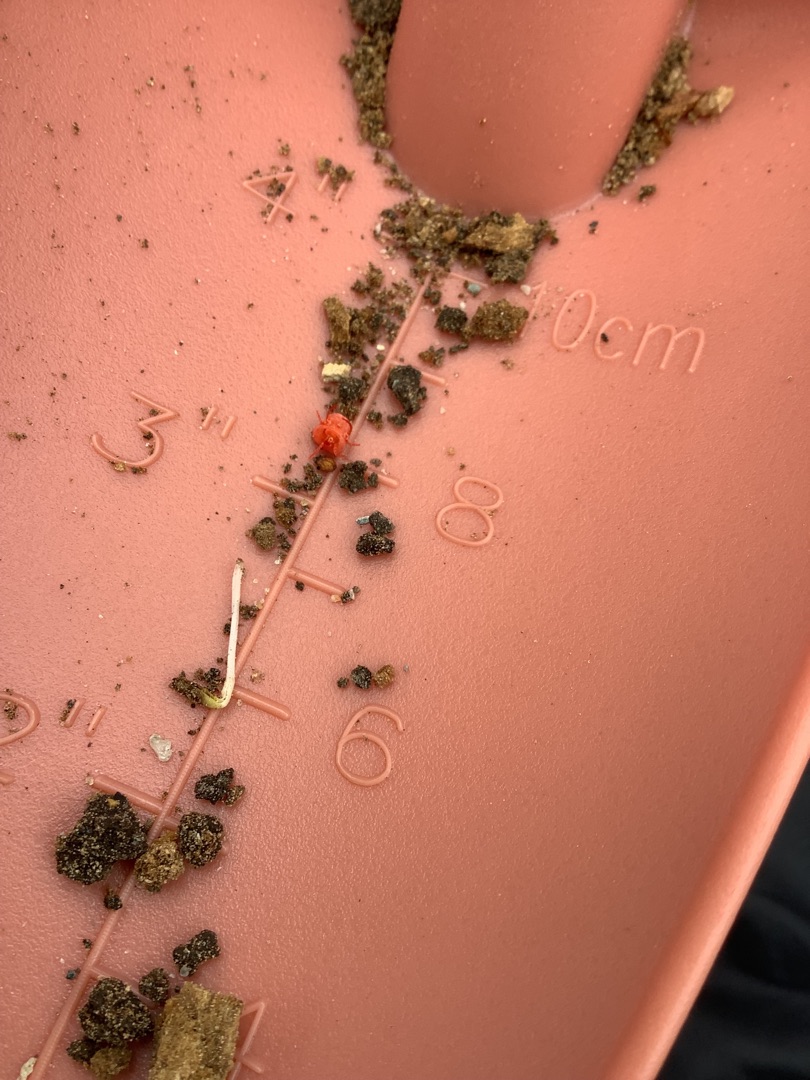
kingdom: Animalia
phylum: Arthropoda
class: Arachnida
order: Trombidiformes
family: Trombidiidae
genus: Trombidium
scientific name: Trombidium
